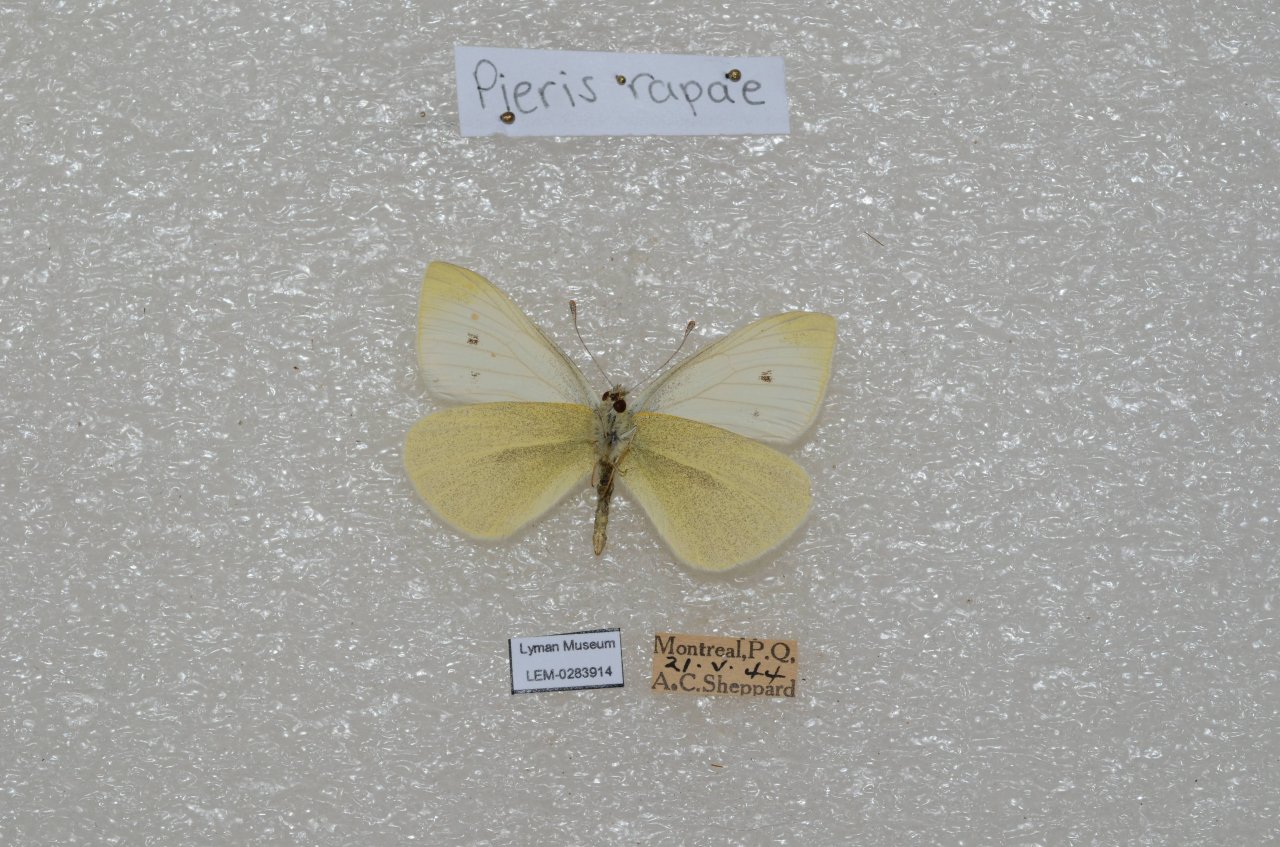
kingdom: Animalia
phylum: Arthropoda
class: Insecta
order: Lepidoptera
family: Pieridae
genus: Pieris
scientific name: Pieris rapae
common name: Cabbage White
